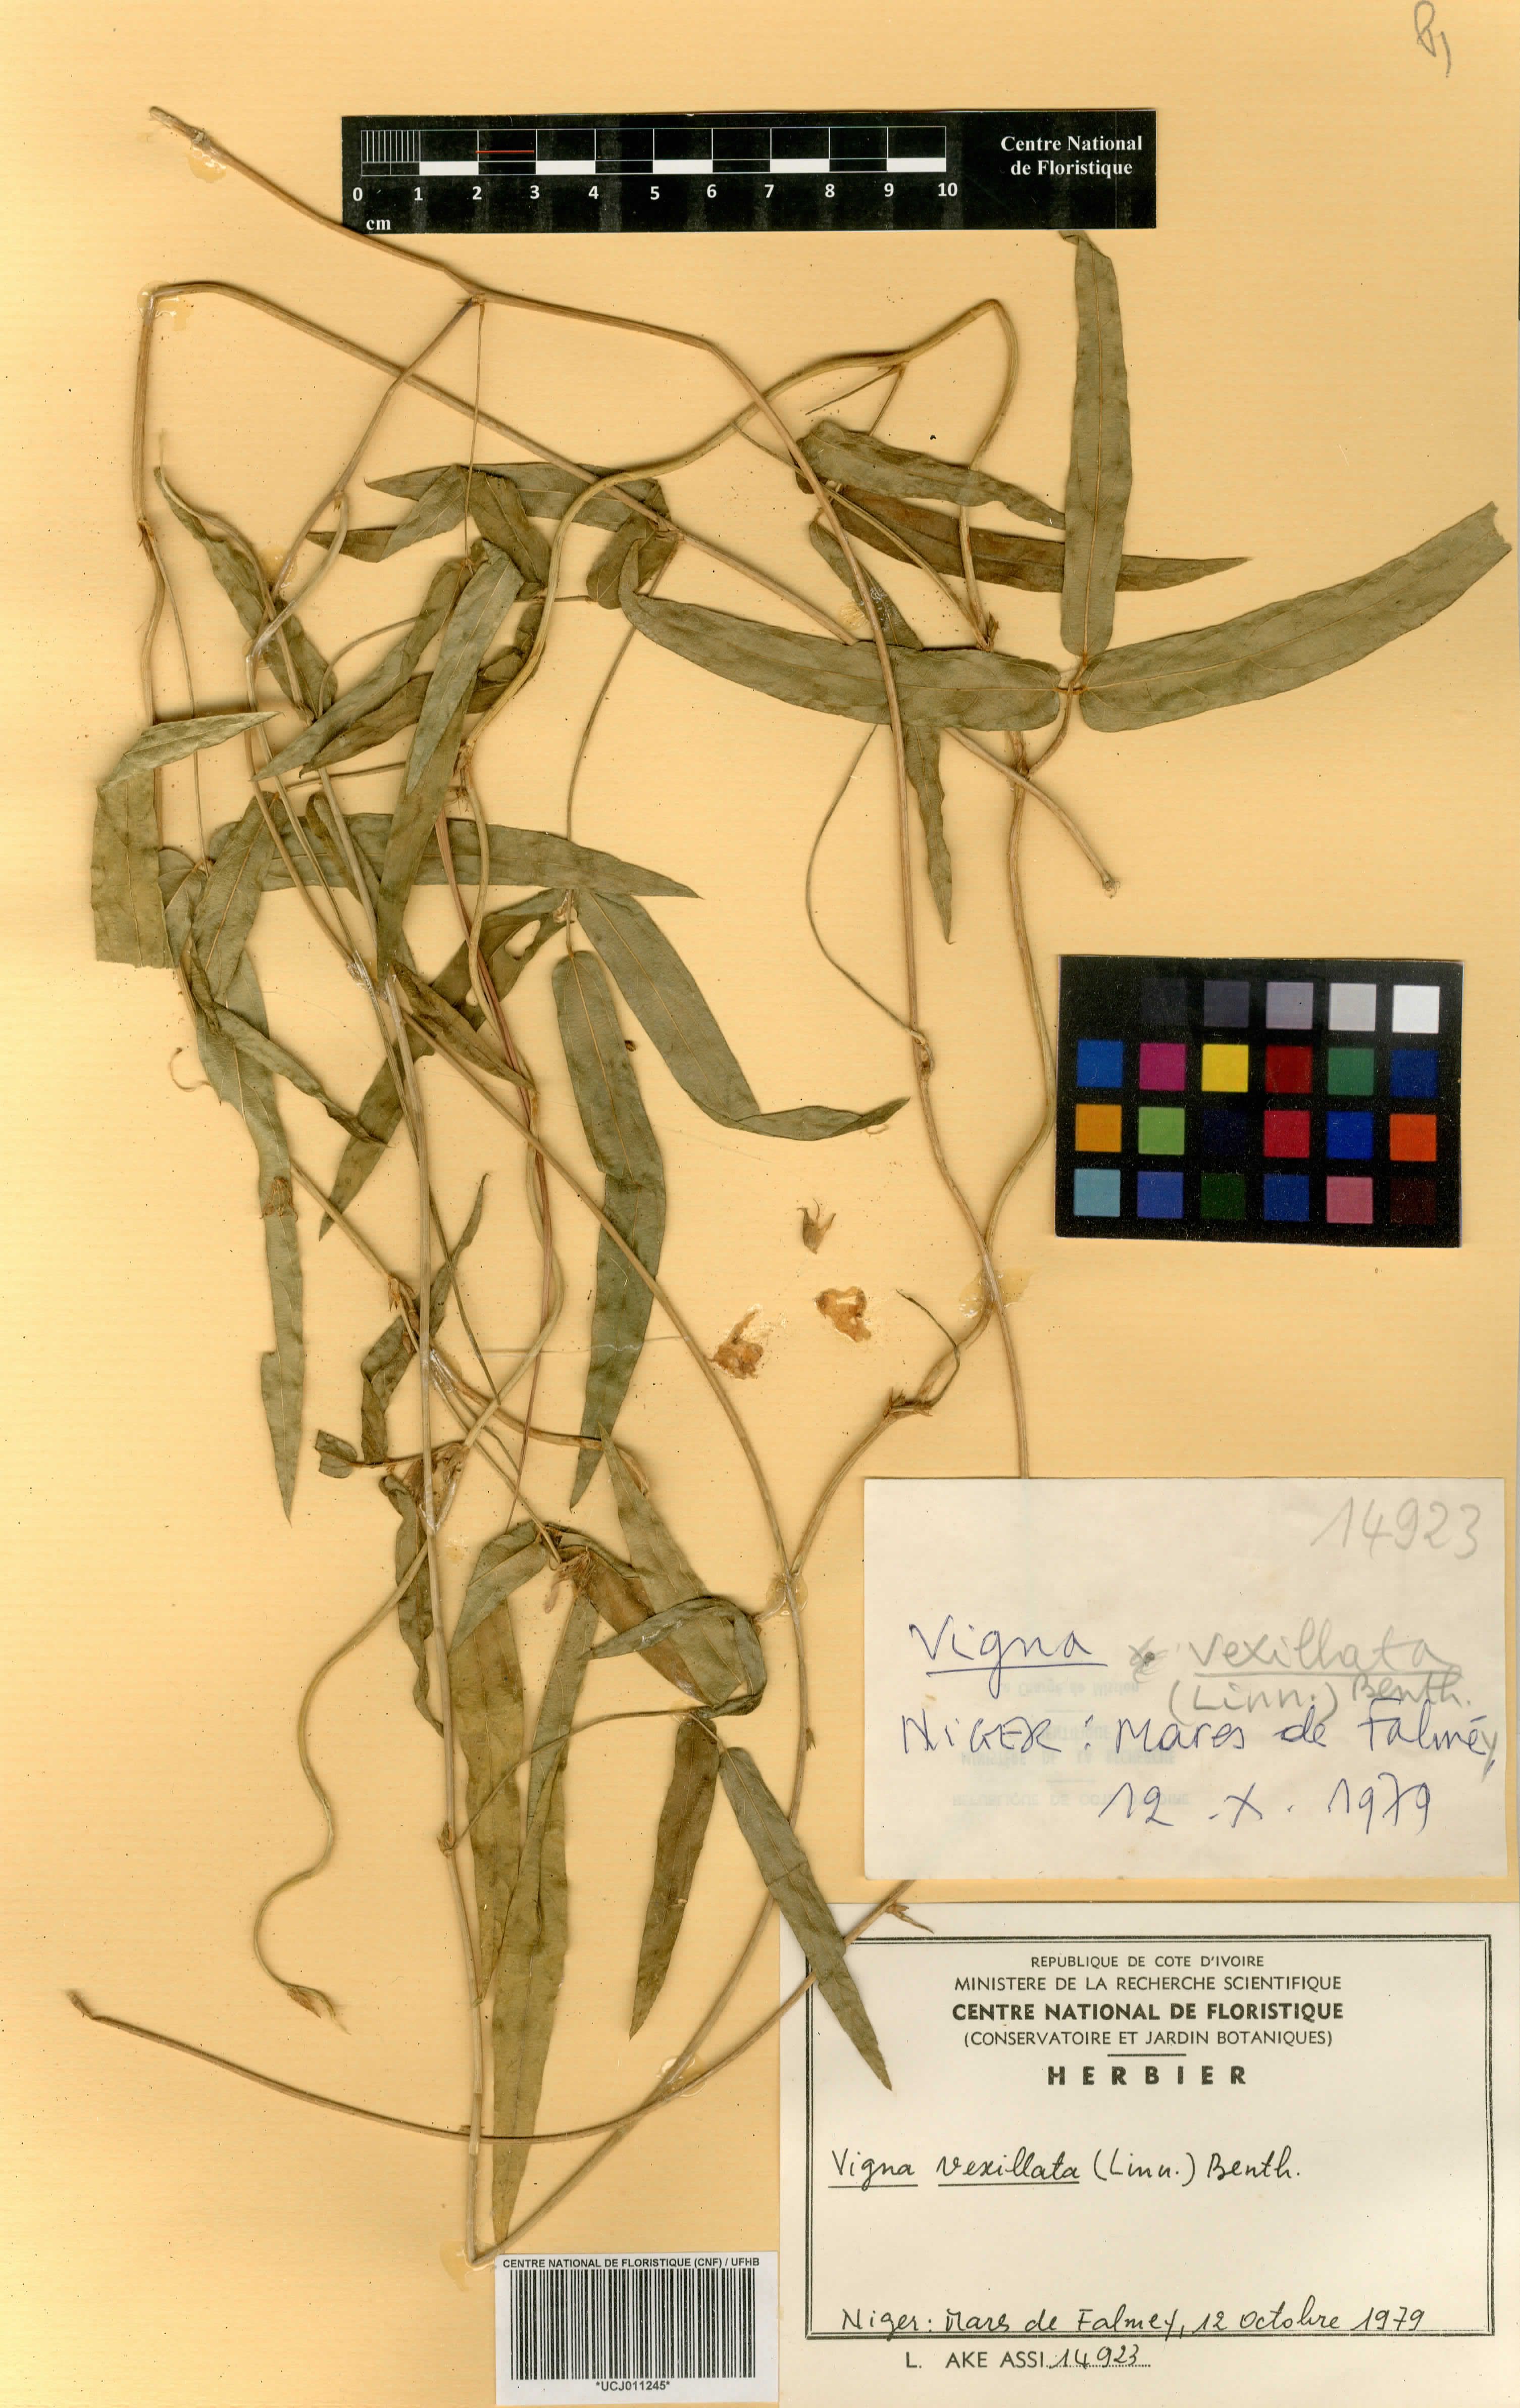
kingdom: Plantae
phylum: Tracheophyta
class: Magnoliopsida
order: Fabales
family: Fabaceae
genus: Vigna
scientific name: Vigna vexillata
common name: Zombi pea
